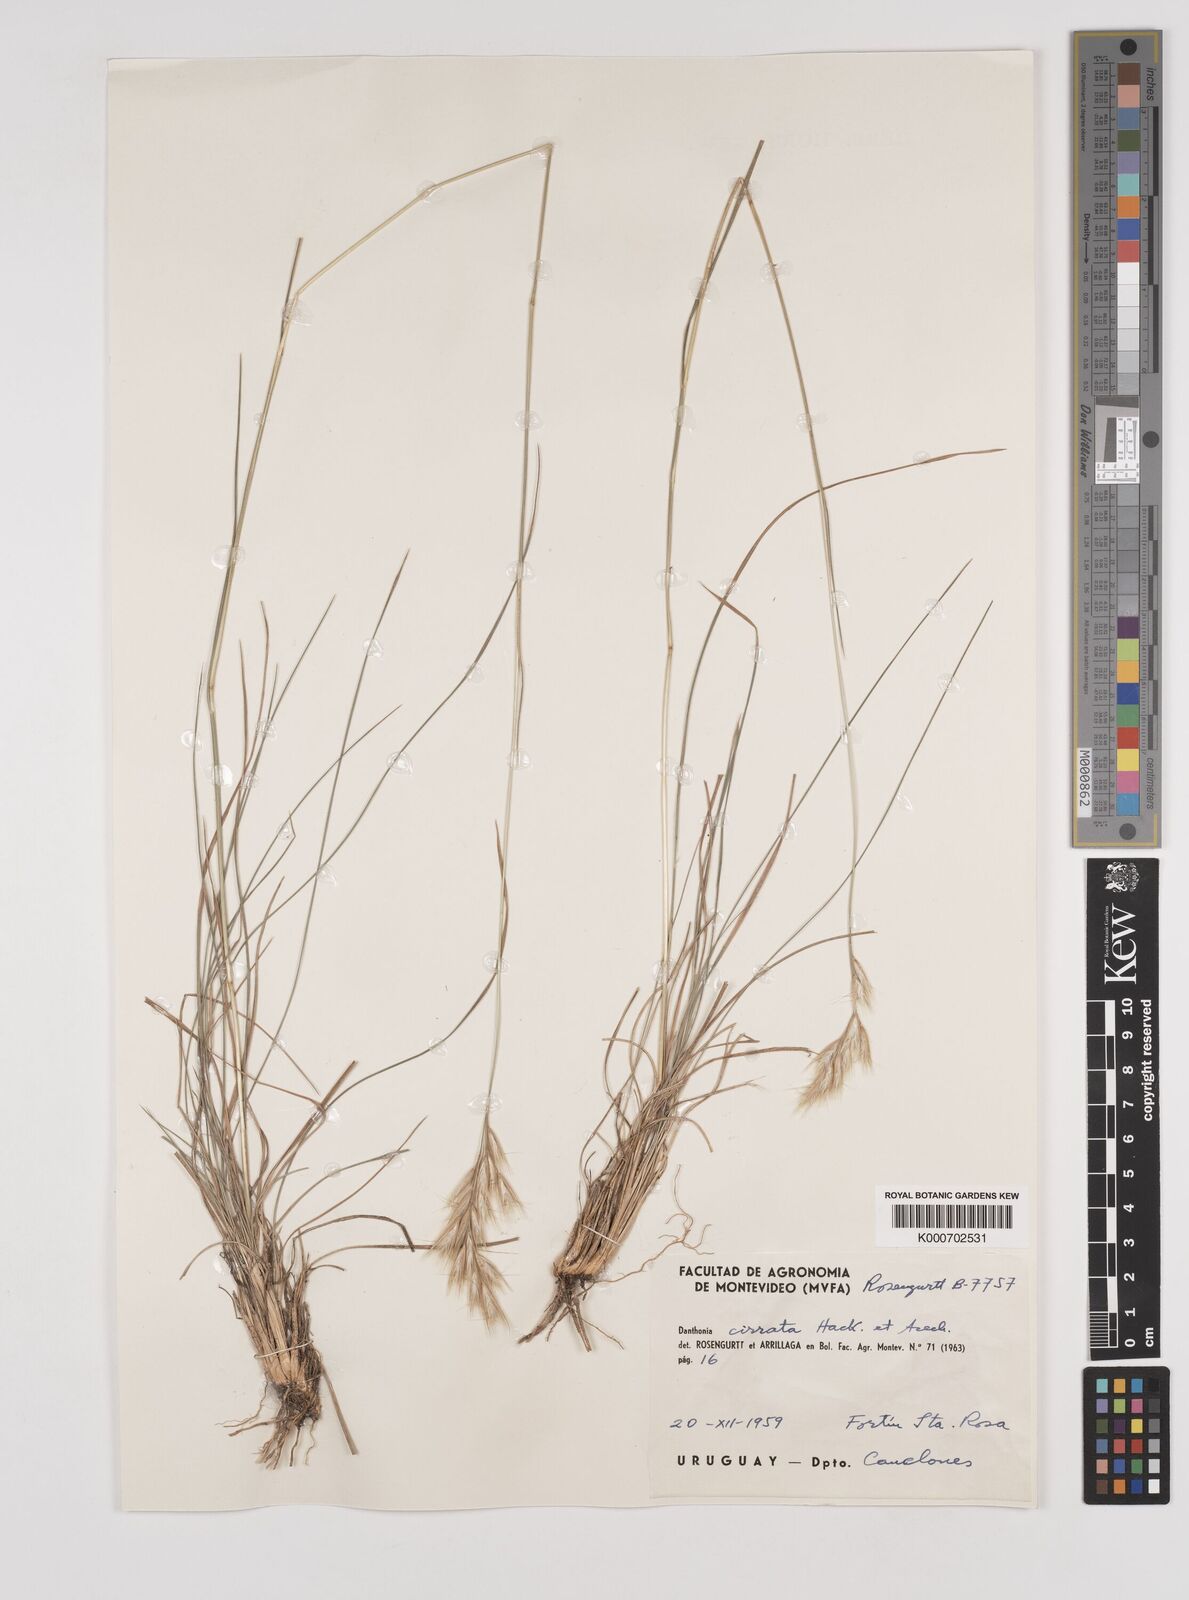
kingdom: Plantae
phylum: Tracheophyta
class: Liliopsida
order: Poales
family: Poaceae
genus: Danthonia
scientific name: Danthonia cirrata
